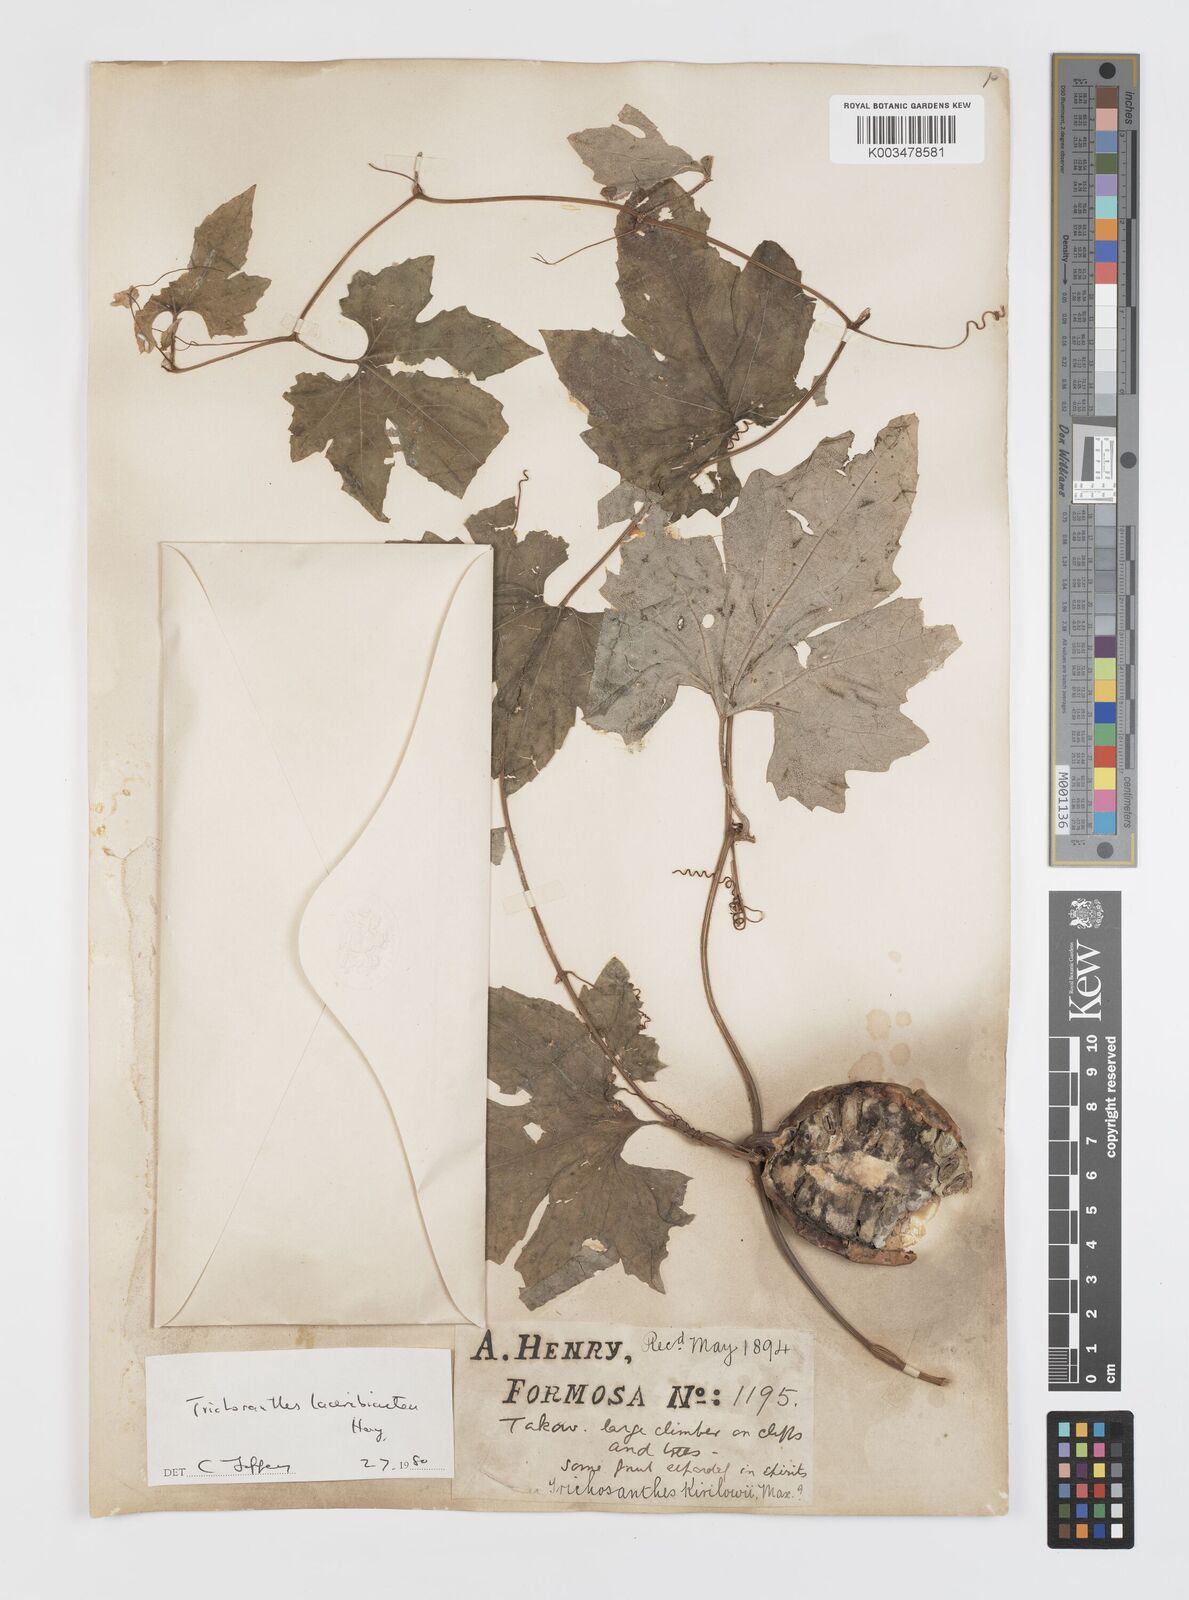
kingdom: Plantae
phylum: Tracheophyta
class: Magnoliopsida
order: Cucurbitales
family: Cucurbitaceae
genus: Trichosanthes
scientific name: Trichosanthes laceribractea
